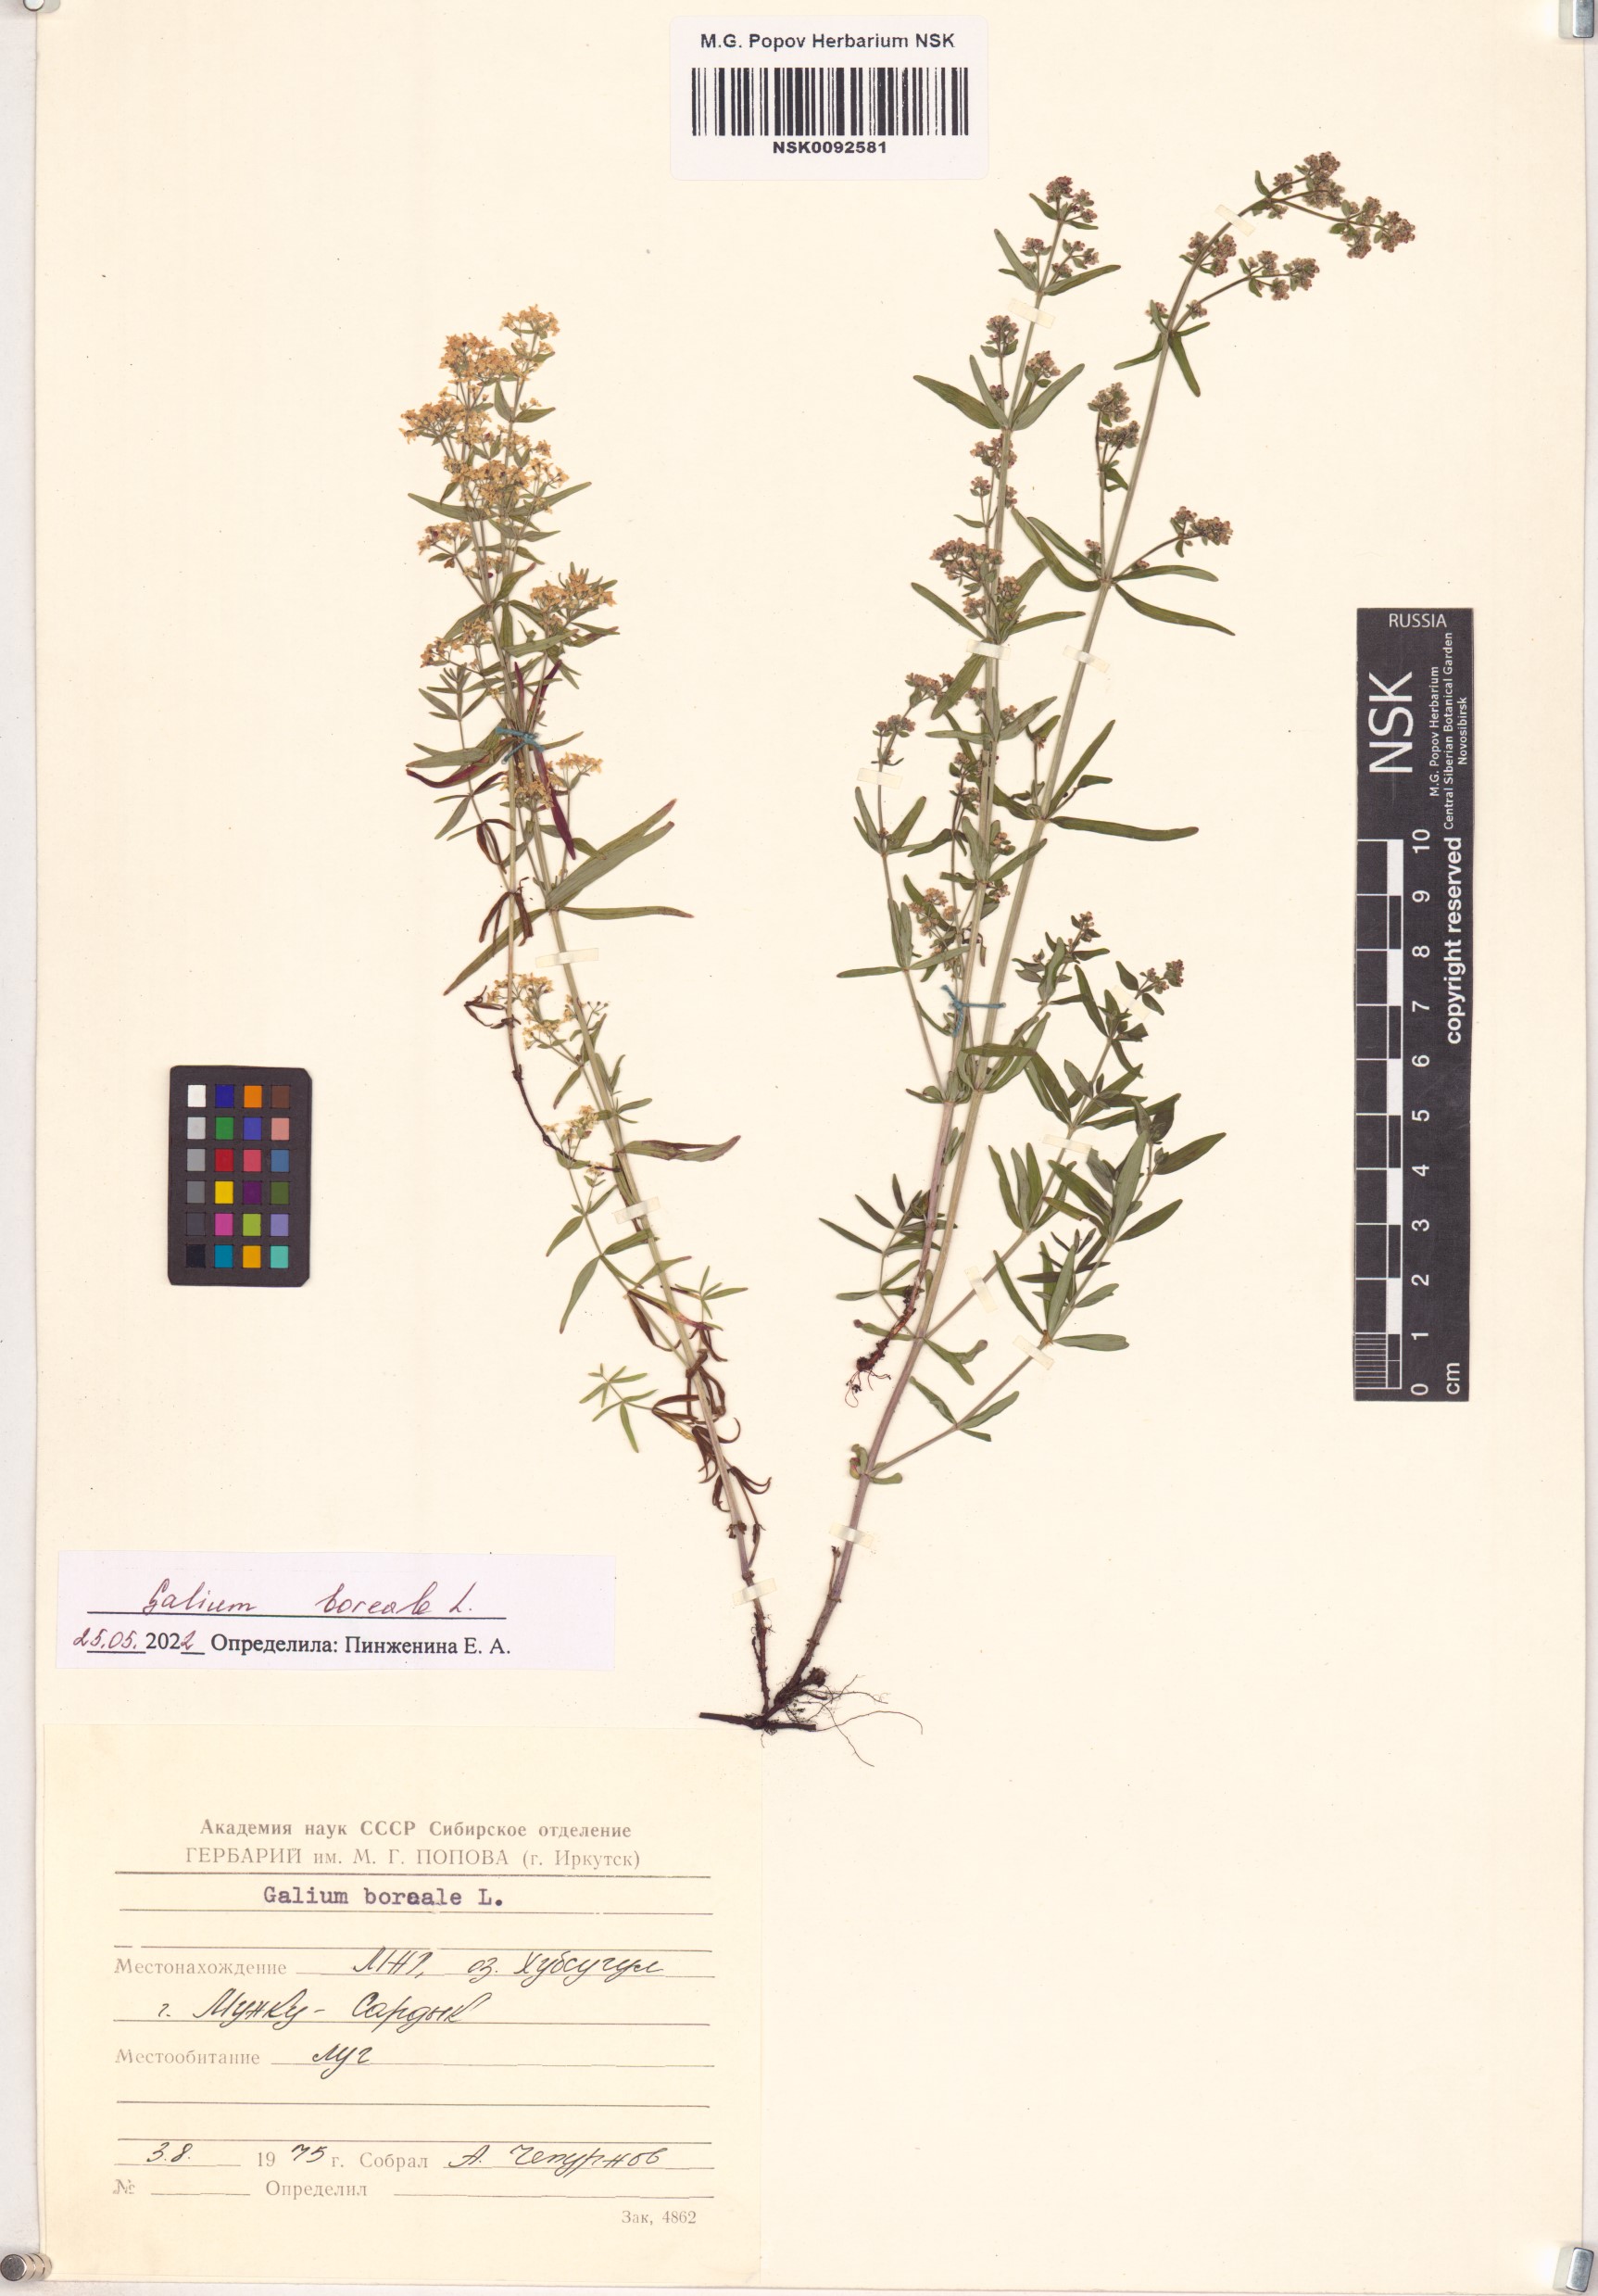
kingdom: Plantae
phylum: Tracheophyta
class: Magnoliopsida
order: Gentianales
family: Rubiaceae
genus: Galium
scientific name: Galium boreale
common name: Northern bedstraw
